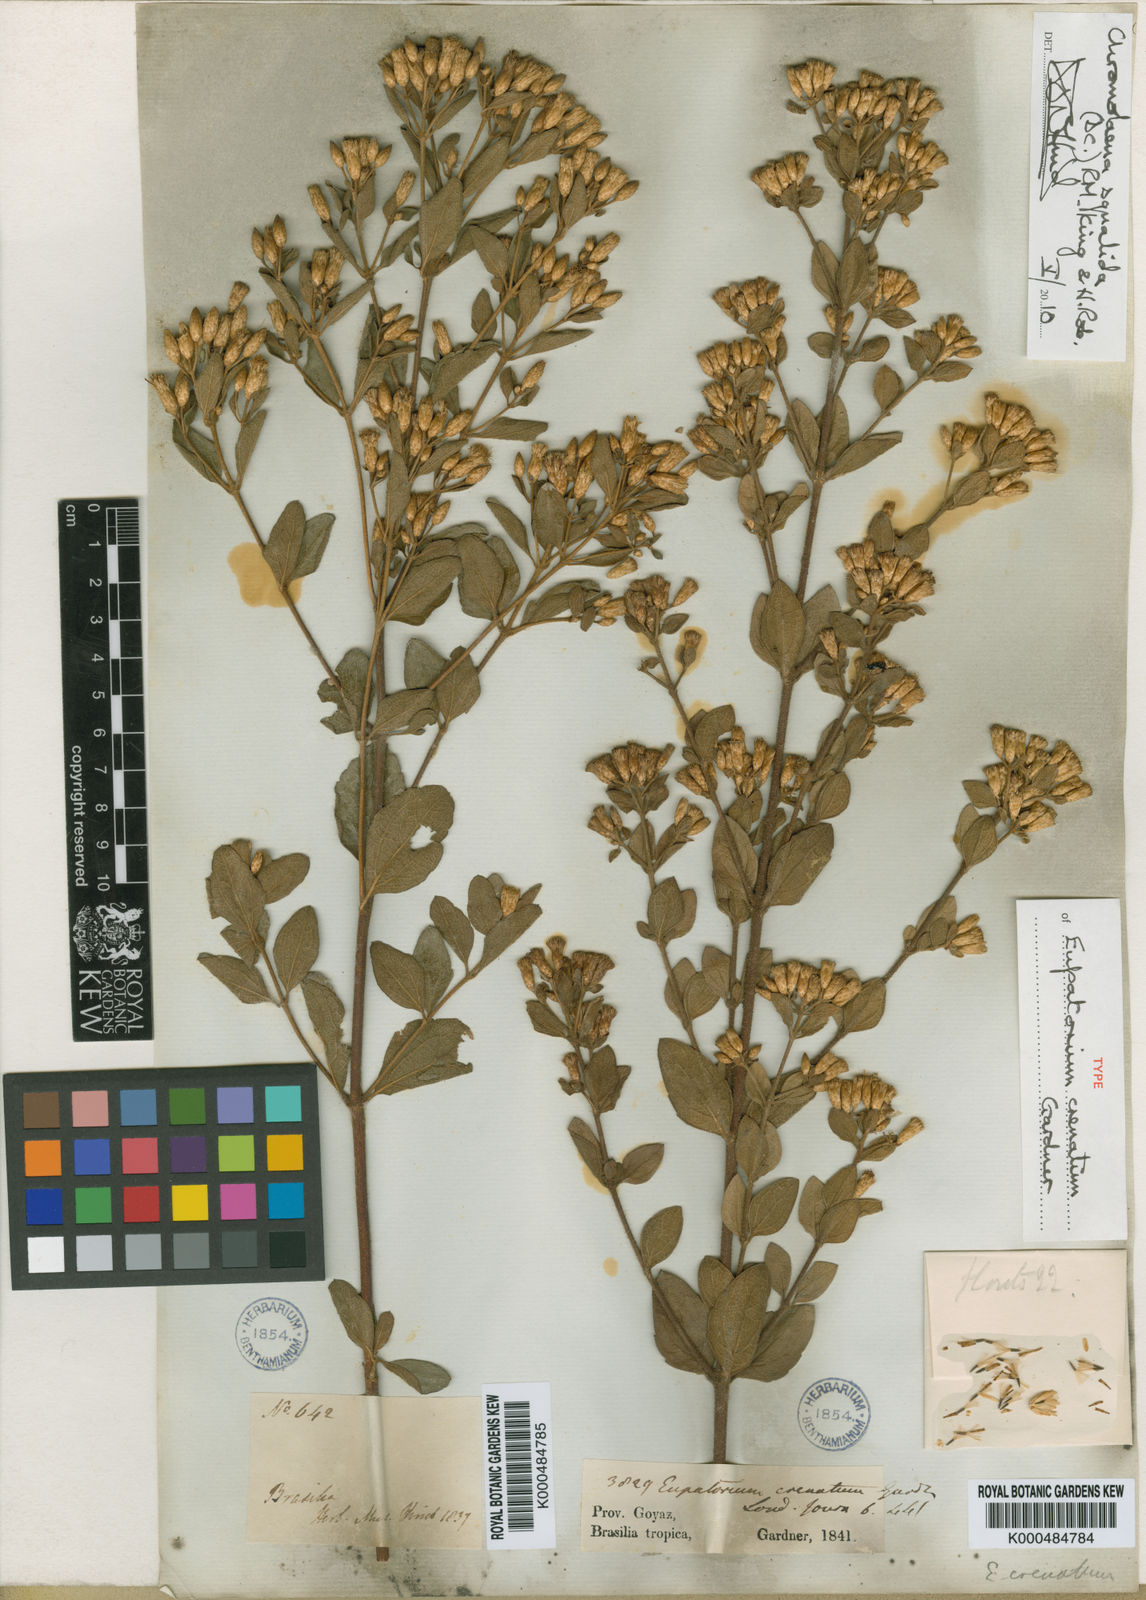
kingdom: Plantae
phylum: Tracheophyta
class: Magnoliopsida
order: Asterales
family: Asteraceae
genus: Chromolaena
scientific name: Chromolaena squalida
